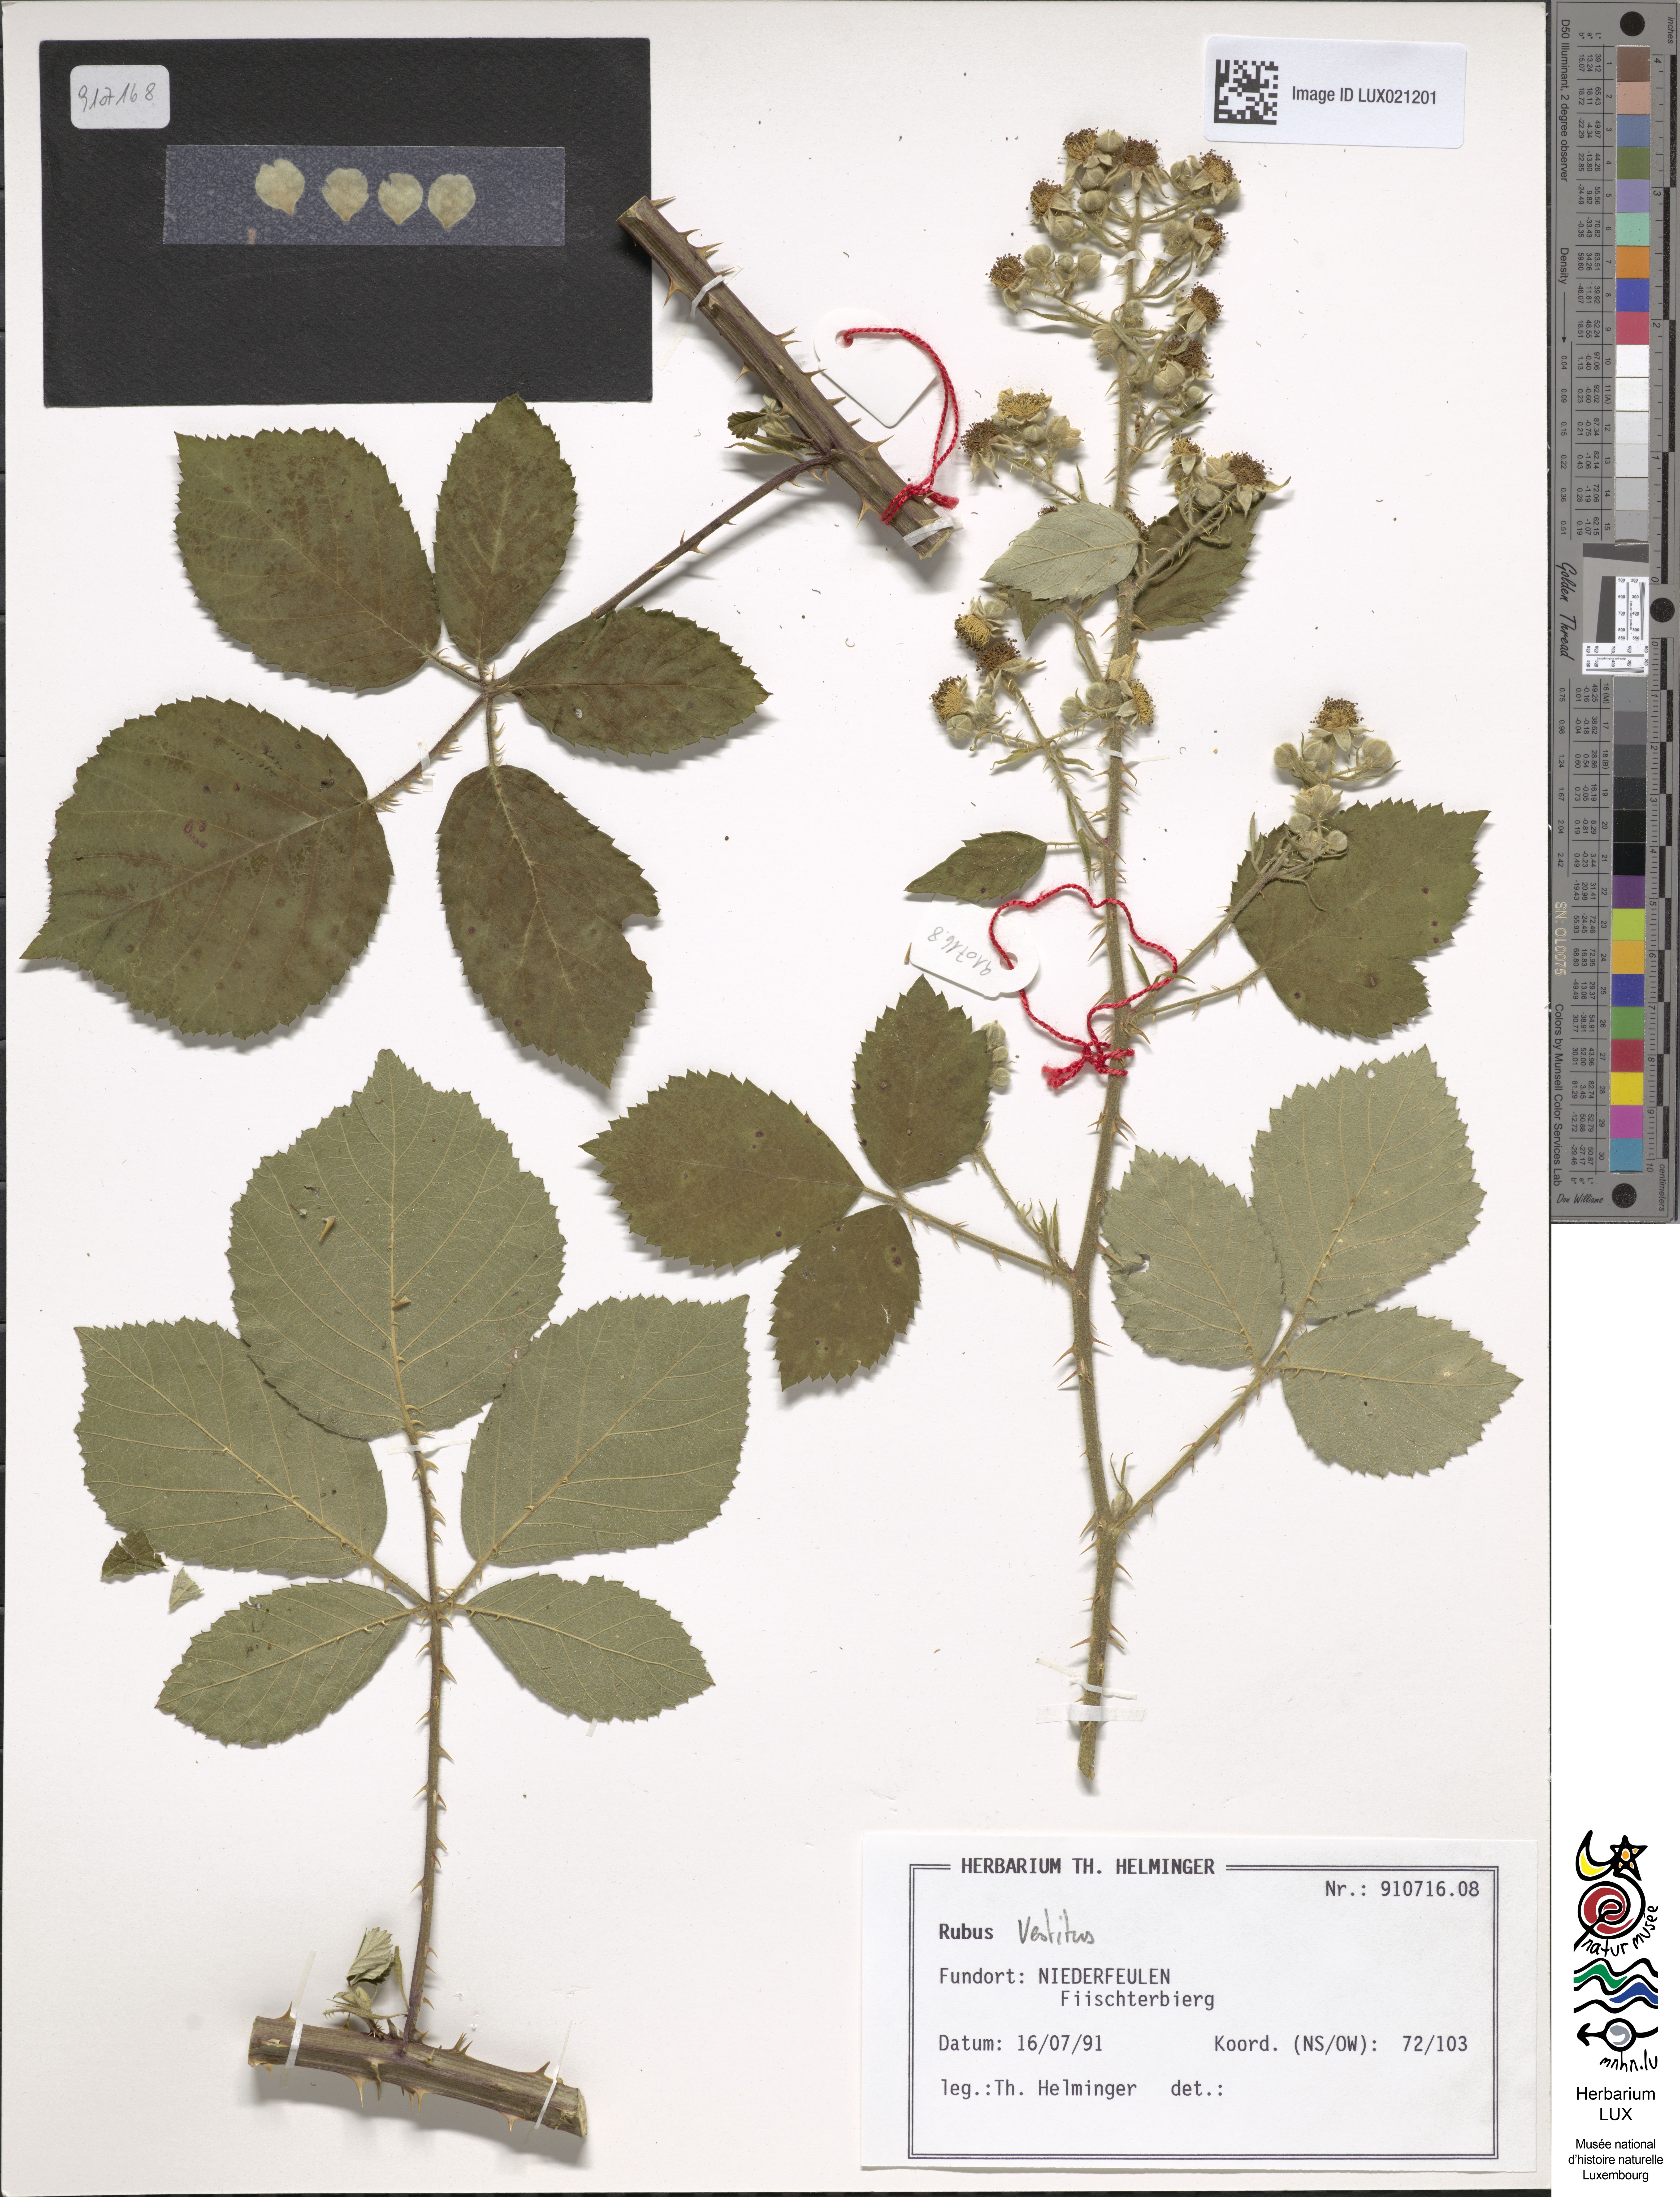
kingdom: Plantae
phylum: Tracheophyta
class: Magnoliopsida
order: Rosales
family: Rosaceae
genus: Rubus
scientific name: Rubus
